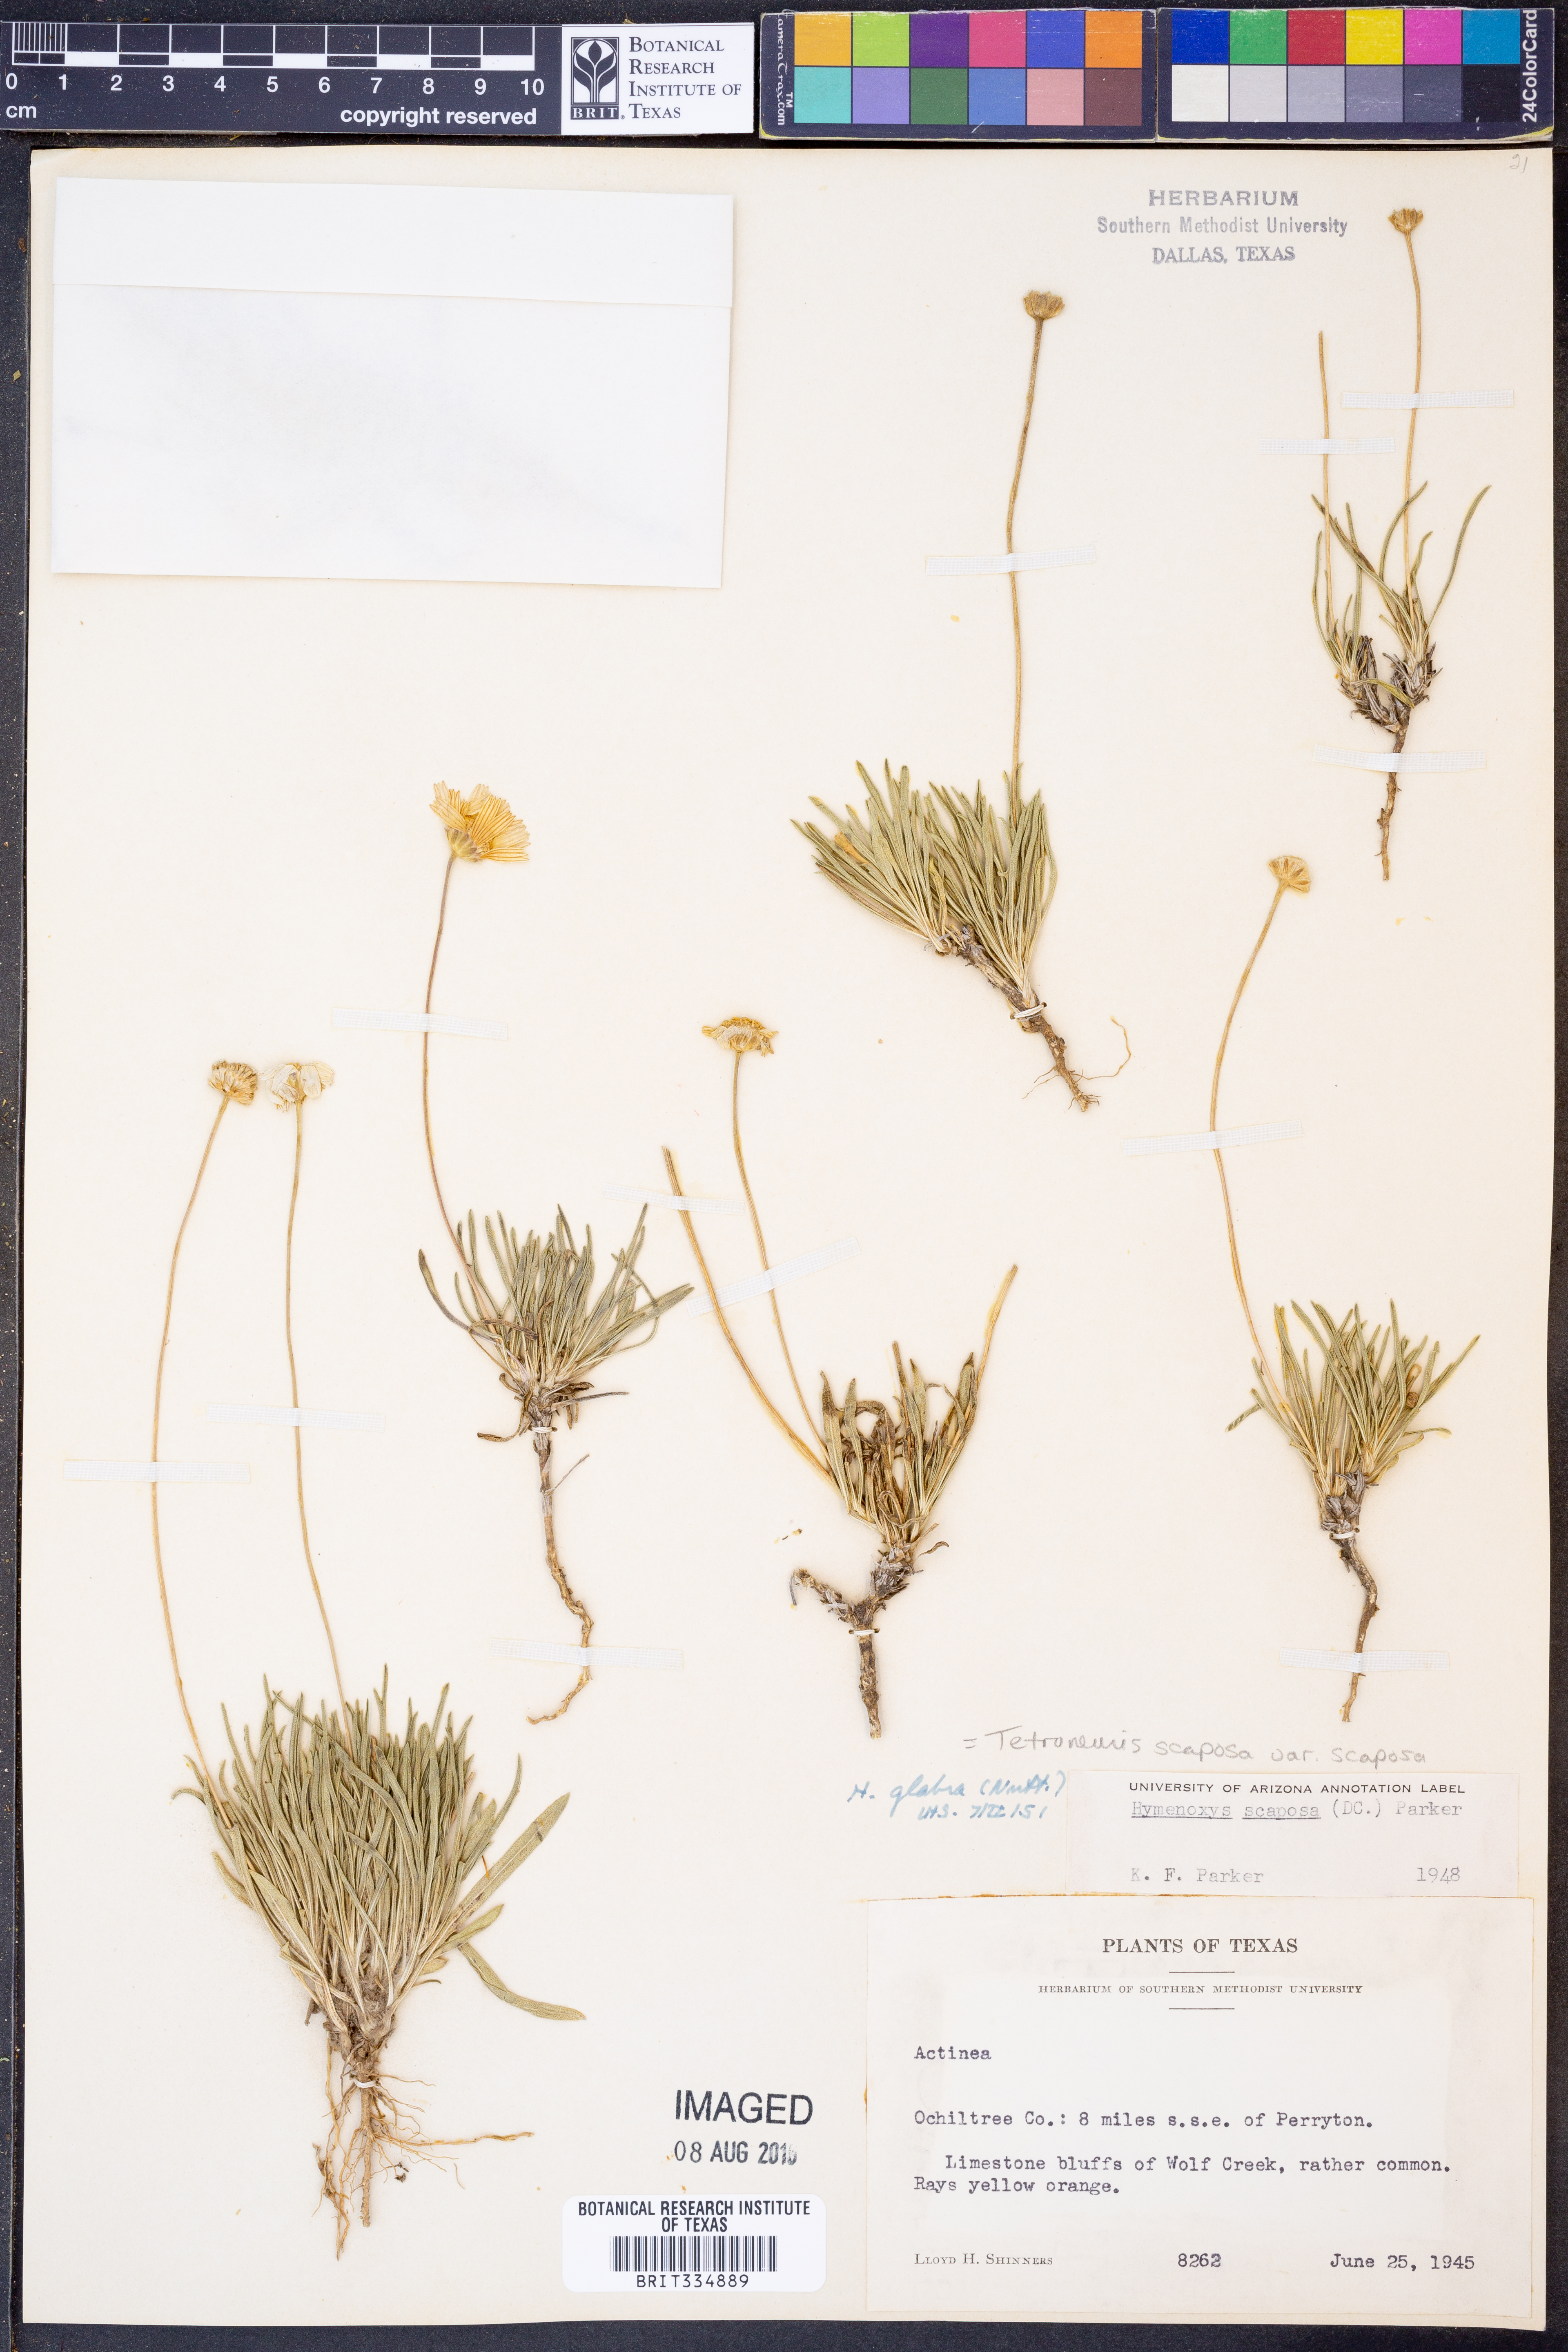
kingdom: Plantae
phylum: Tracheophyta
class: Magnoliopsida
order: Asterales
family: Asteraceae
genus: Tetraneuris
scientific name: Tetraneuris scaposa
